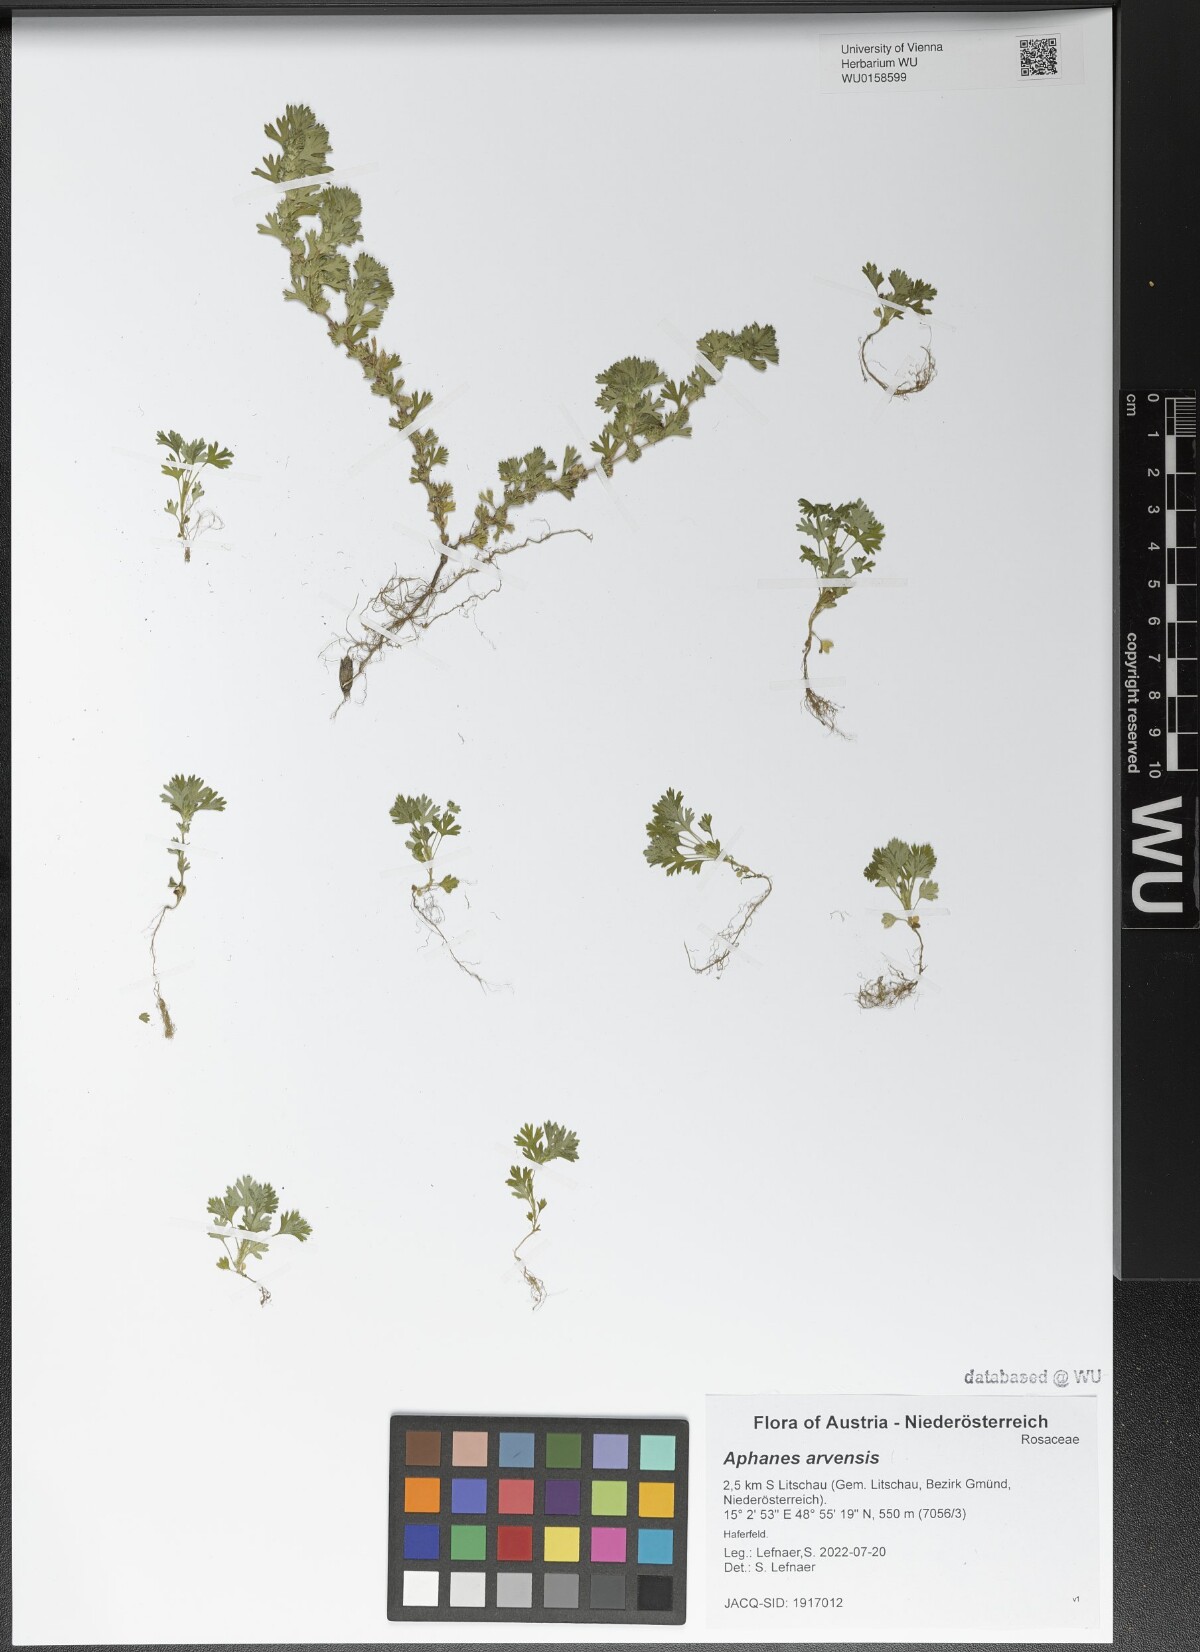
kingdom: Plantae
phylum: Tracheophyta
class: Magnoliopsida
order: Rosales
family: Rosaceae
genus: Aphanes
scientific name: Aphanes arvensis
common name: Parsley-piert
